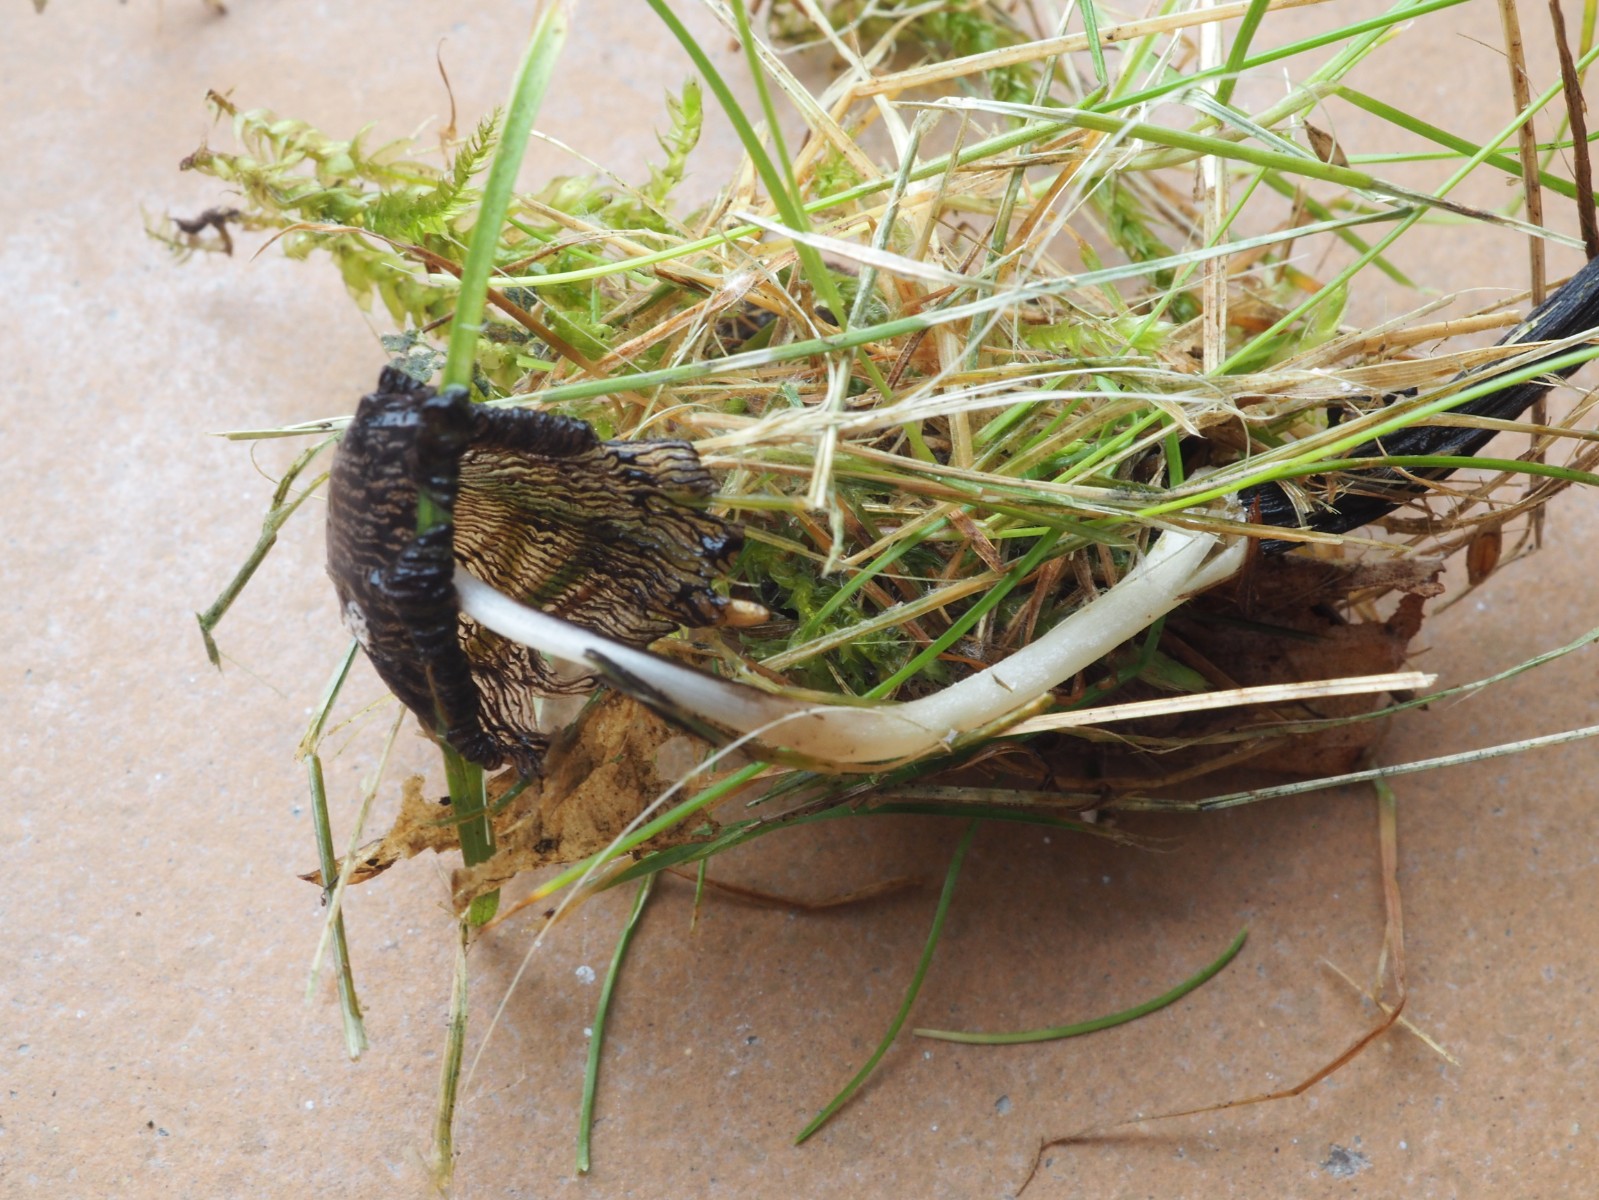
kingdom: Fungi
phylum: Basidiomycota
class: Agaricomycetes
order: Agaricales
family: Psathyrellaceae
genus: Coprinopsis
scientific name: Coprinopsis urticicola
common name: urte-blækhat
